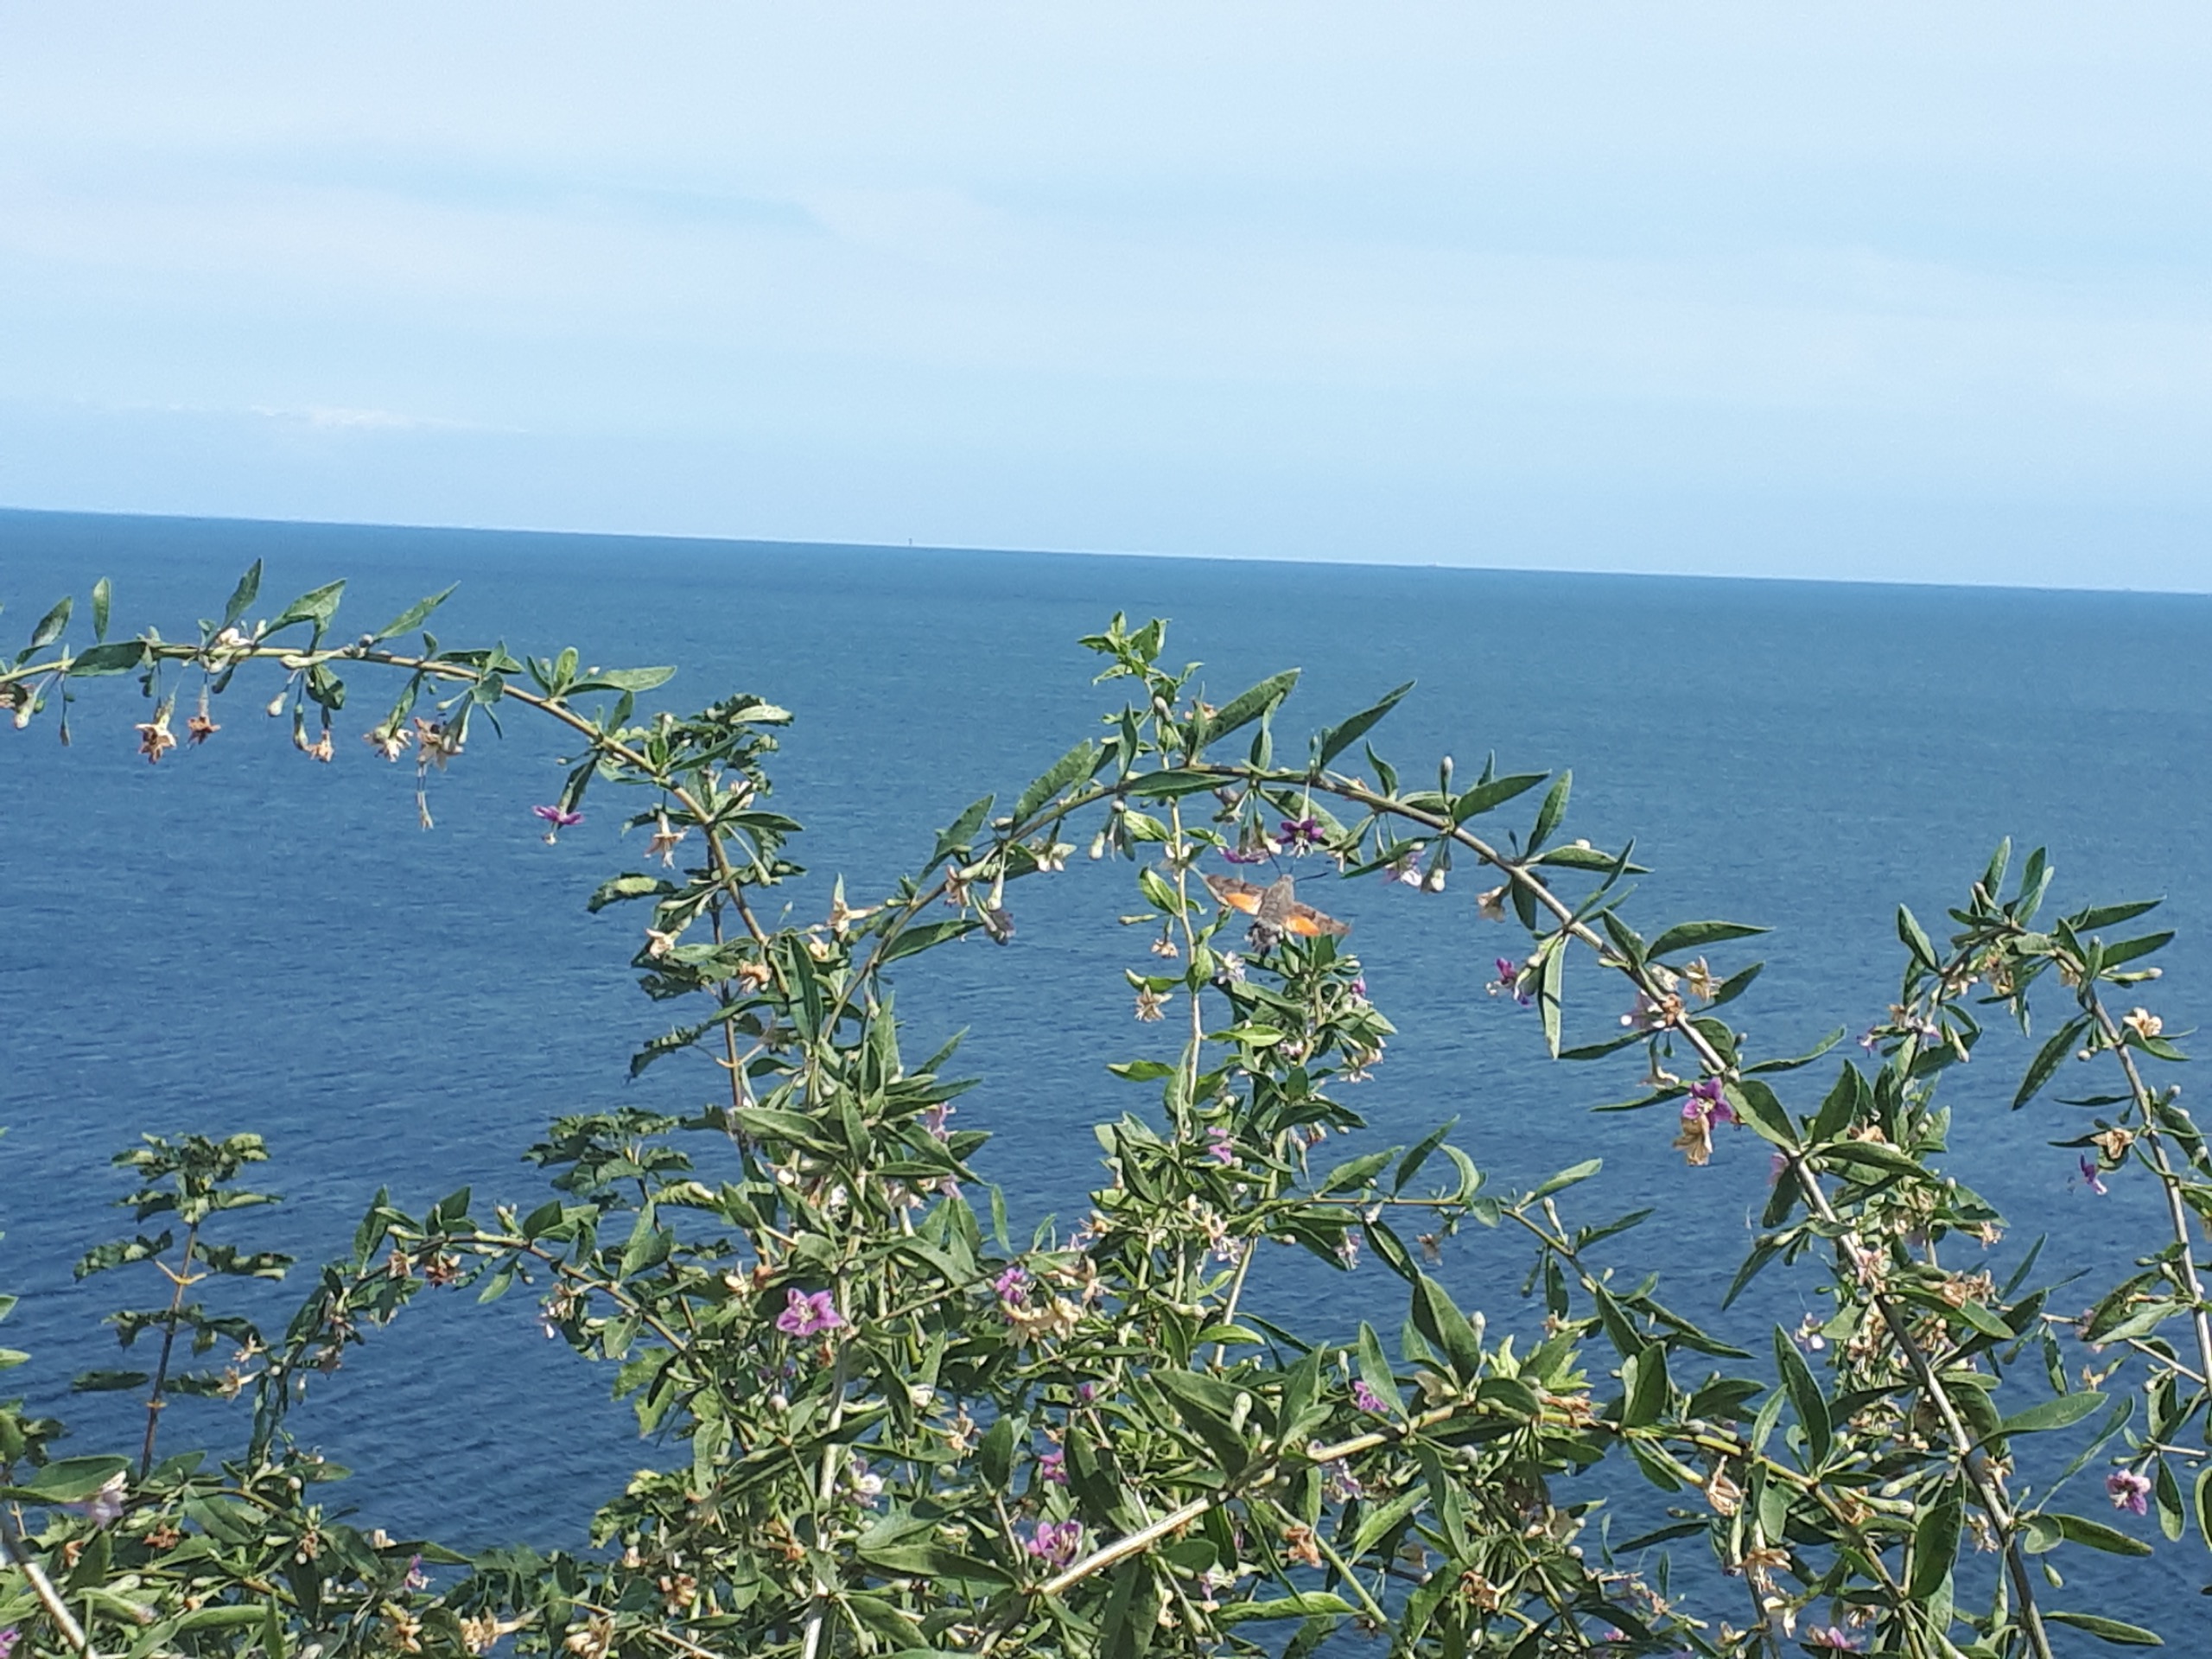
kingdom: Animalia
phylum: Arthropoda
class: Insecta
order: Lepidoptera
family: Sphingidae
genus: Macroglossum
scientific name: Macroglossum stellatarum
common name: Duehale
